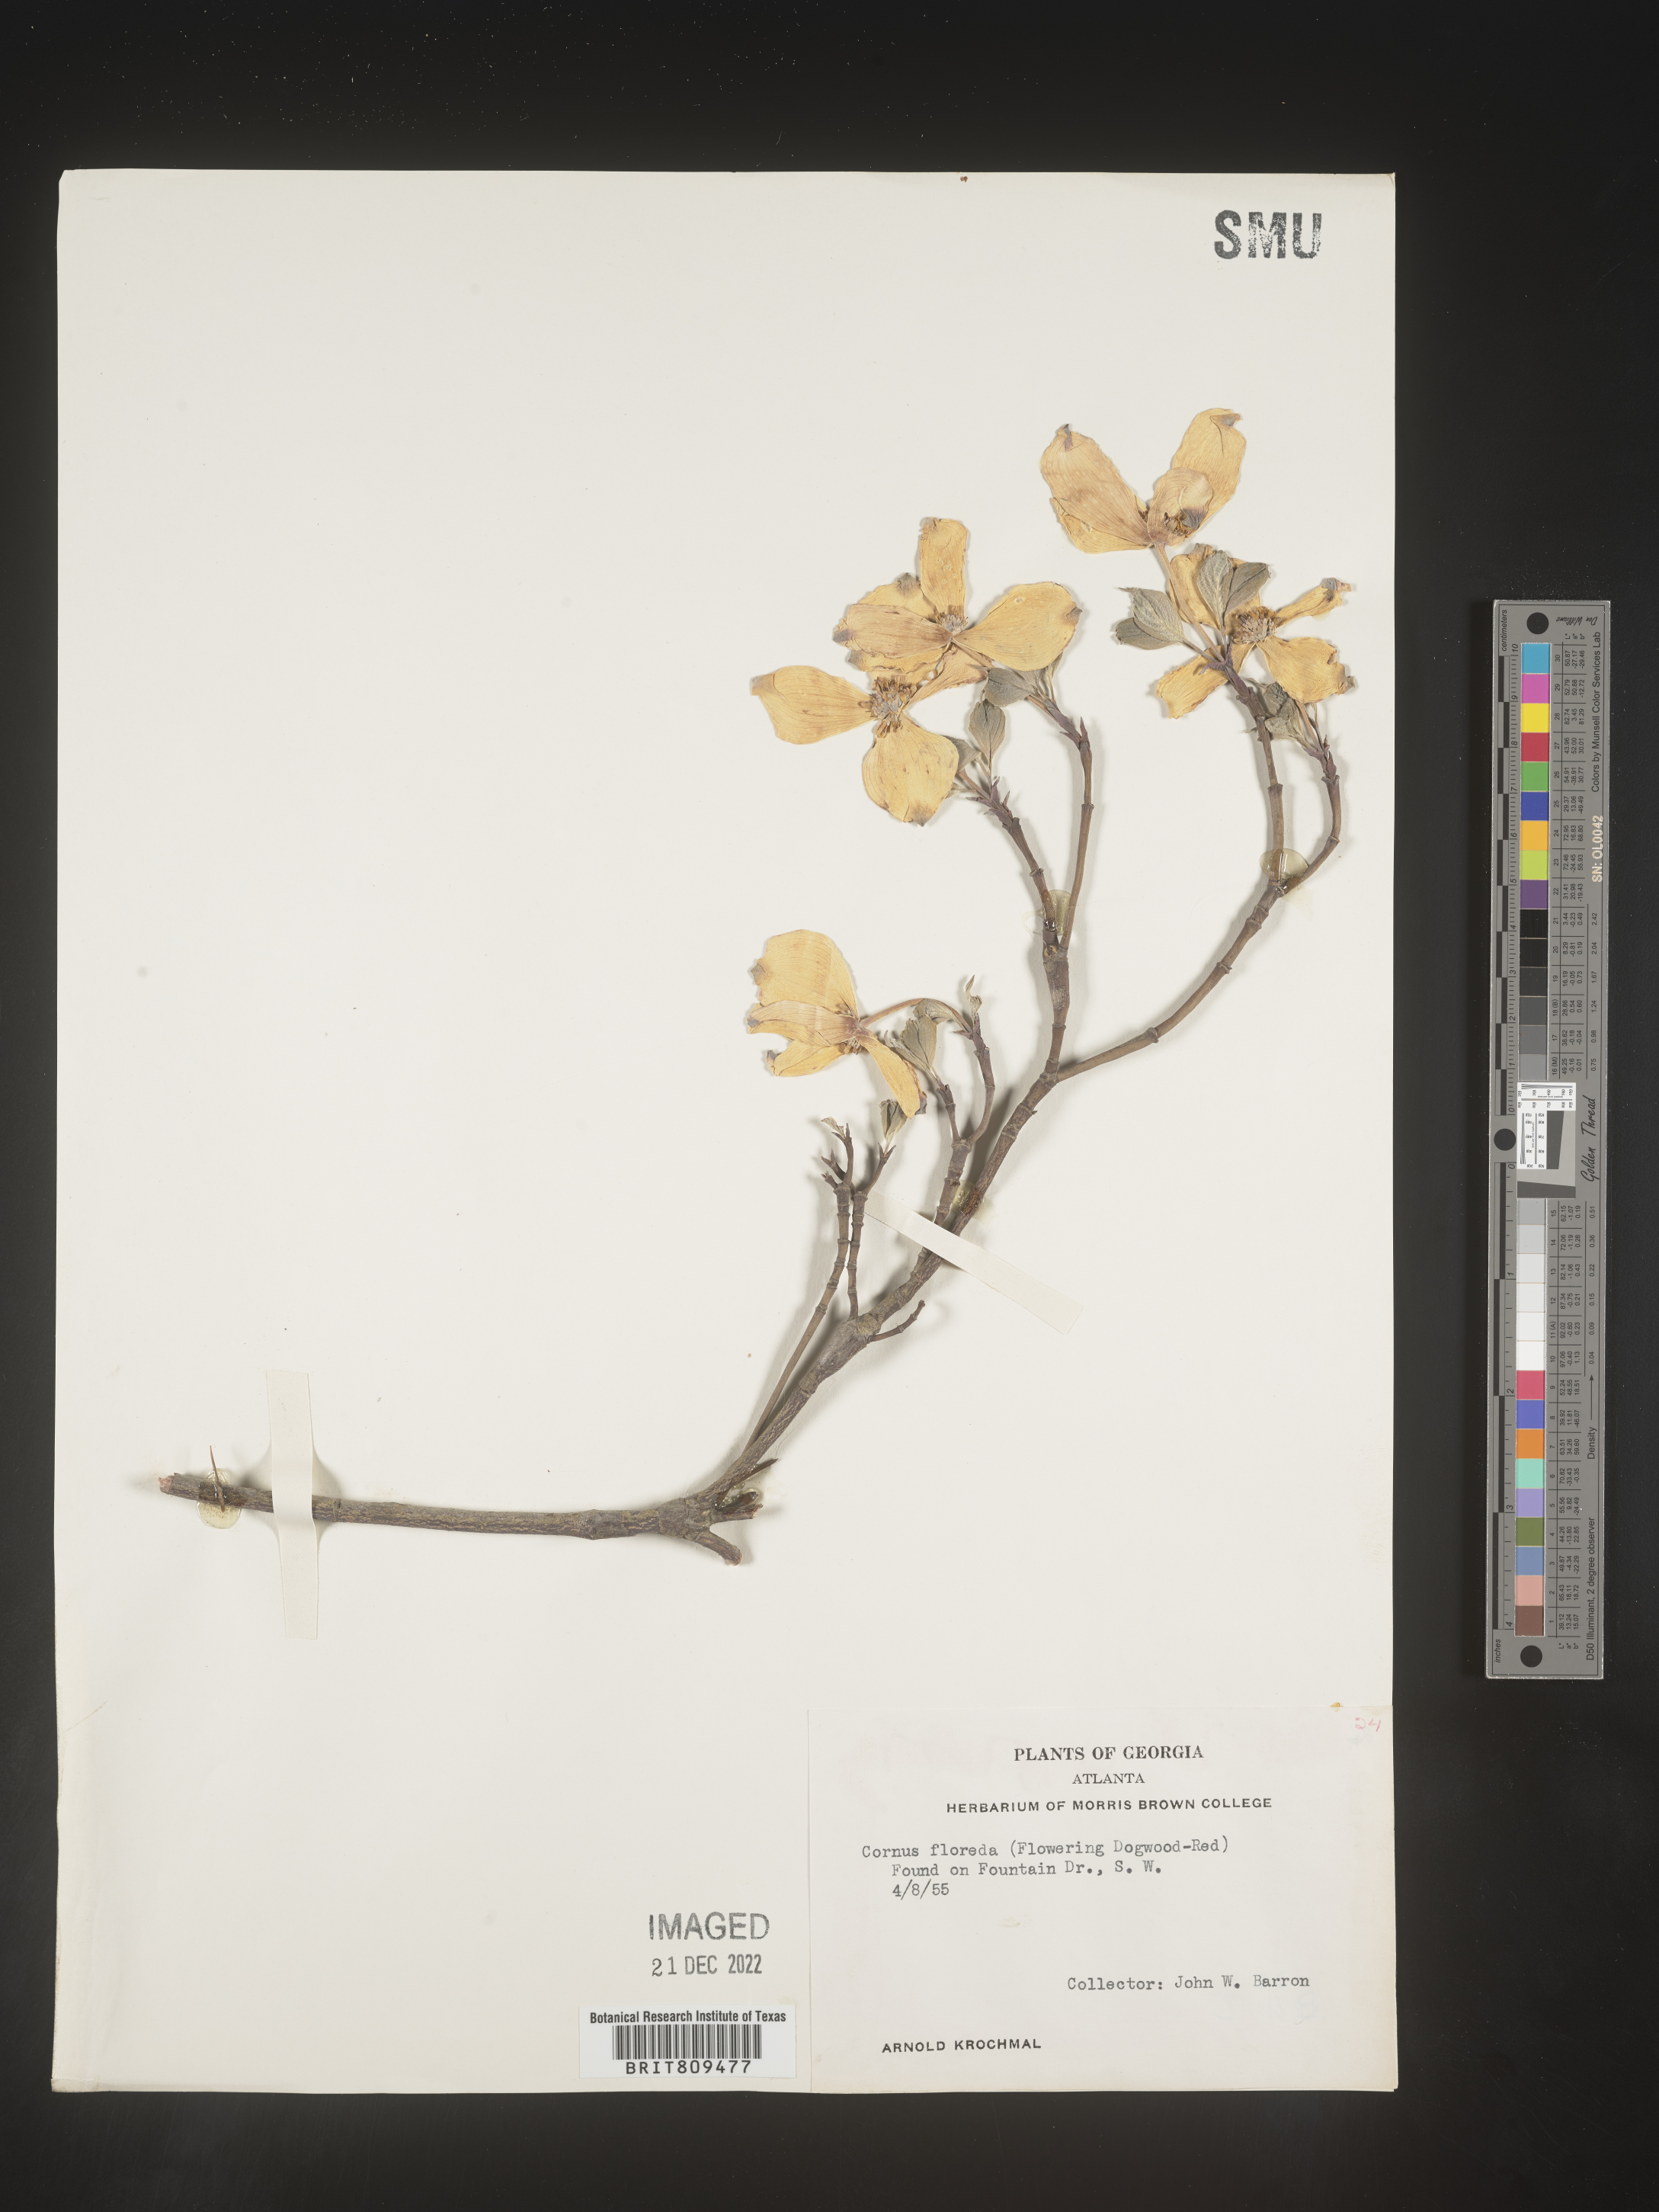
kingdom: Plantae
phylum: Tracheophyta
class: Magnoliopsida
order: Cornales
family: Cornaceae
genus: Cornus
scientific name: Cornus florida
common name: Flowering dogwood
